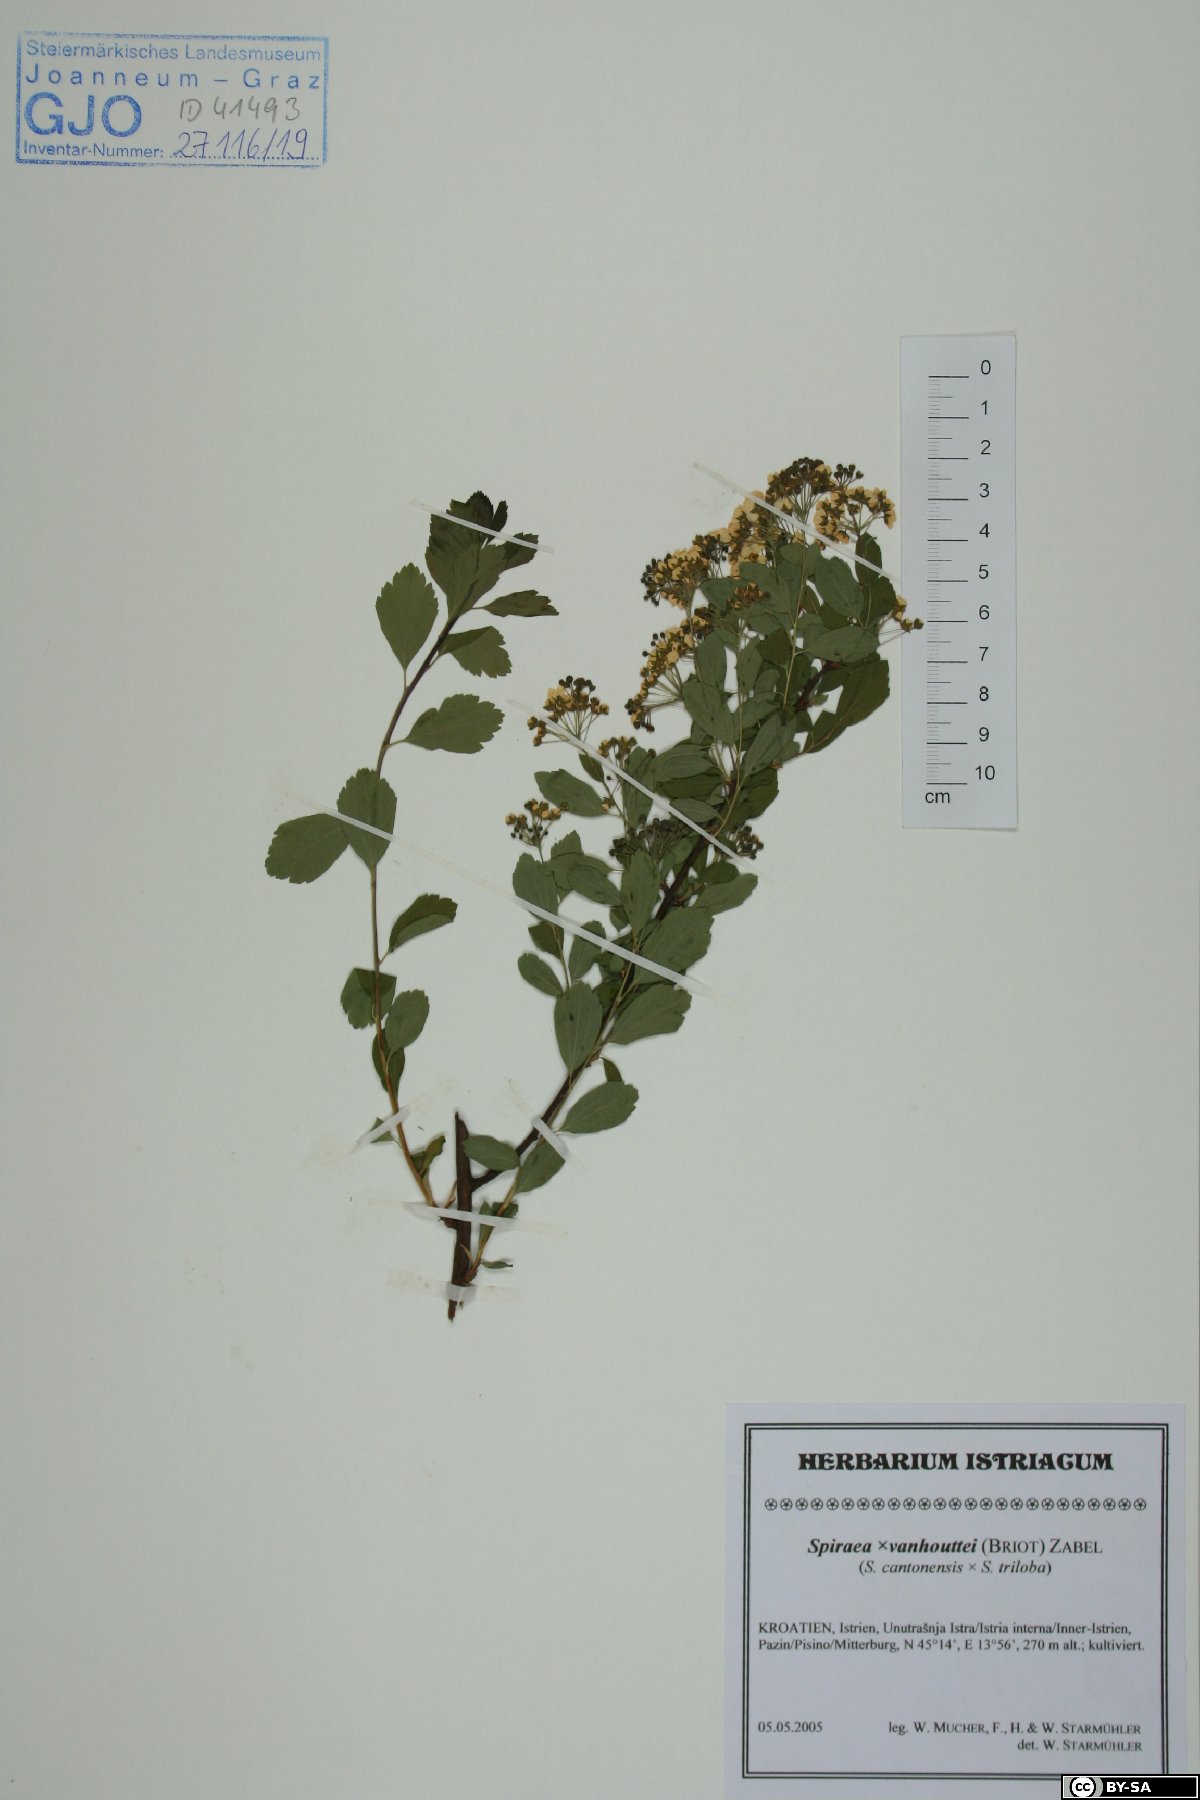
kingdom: Plantae
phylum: Tracheophyta
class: Magnoliopsida
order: Rosales
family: Rosaceae
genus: Spiraea
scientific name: Spiraea vanhouttei
